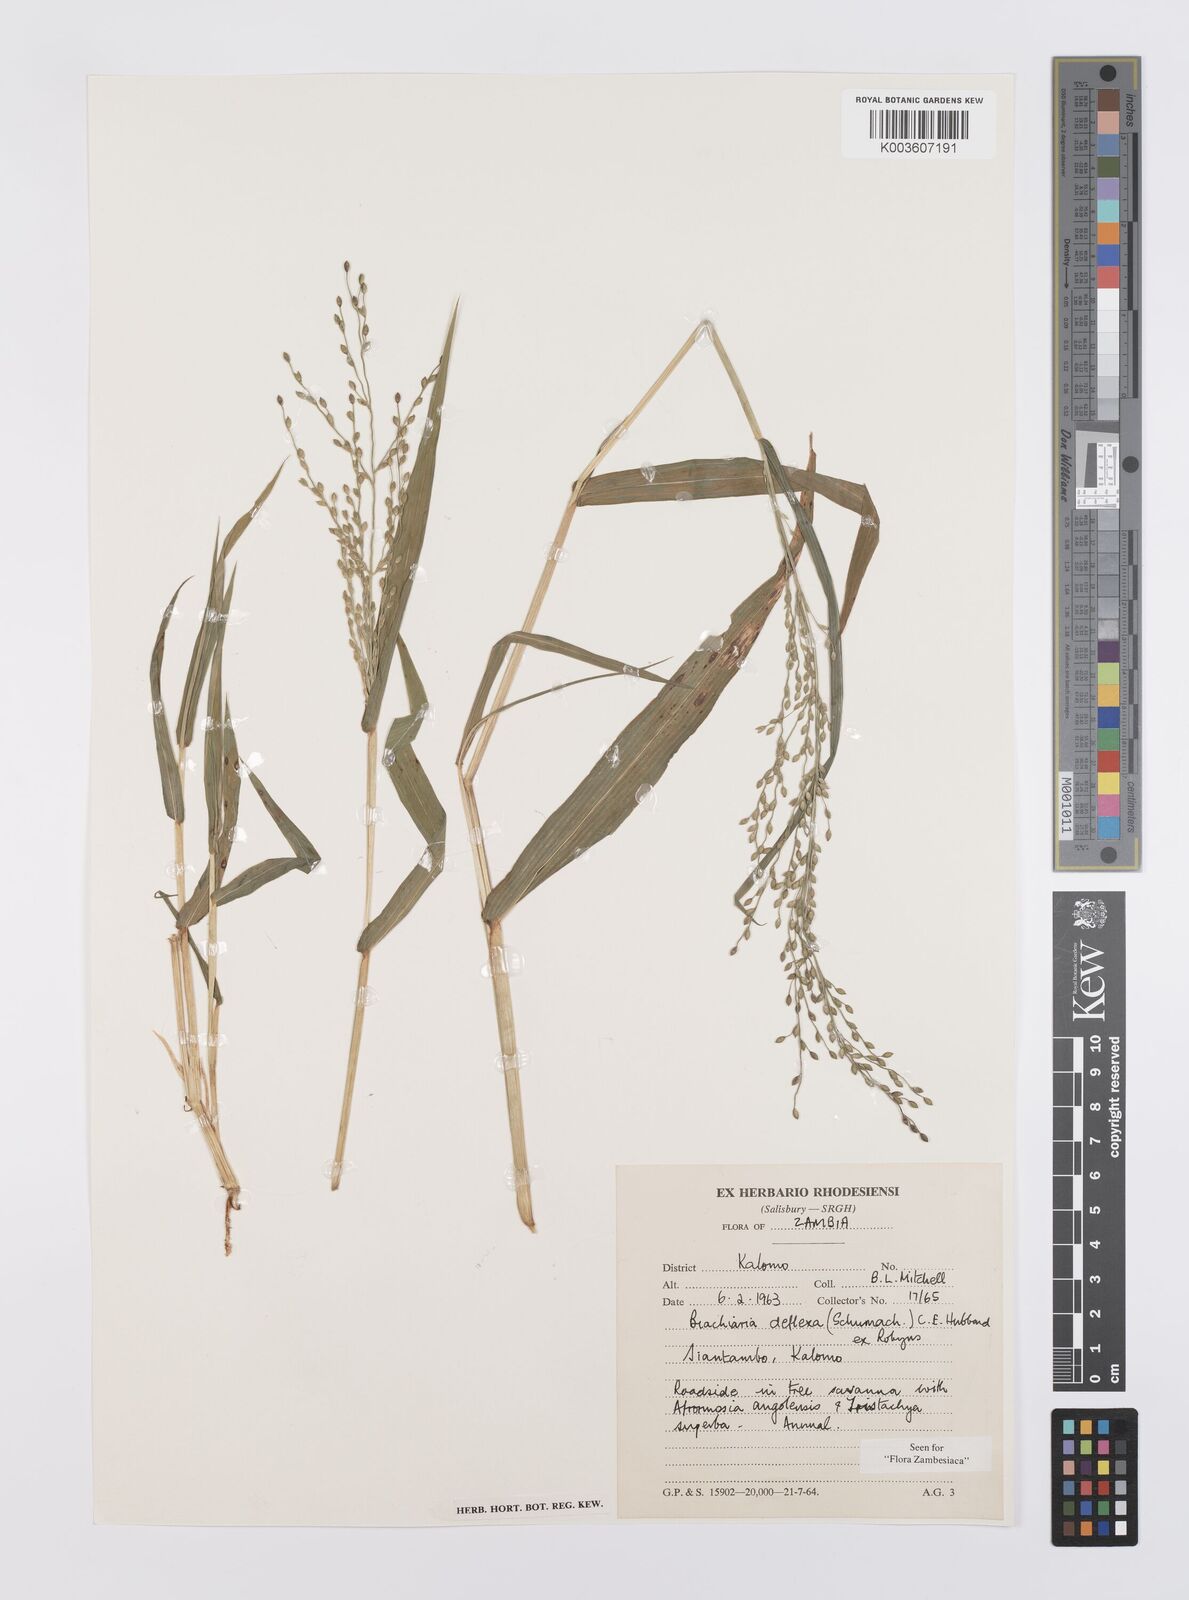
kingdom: Plantae
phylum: Tracheophyta
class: Liliopsida
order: Poales
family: Poaceae
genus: Urochloa
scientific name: Urochloa deflexa
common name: Guinea millet
